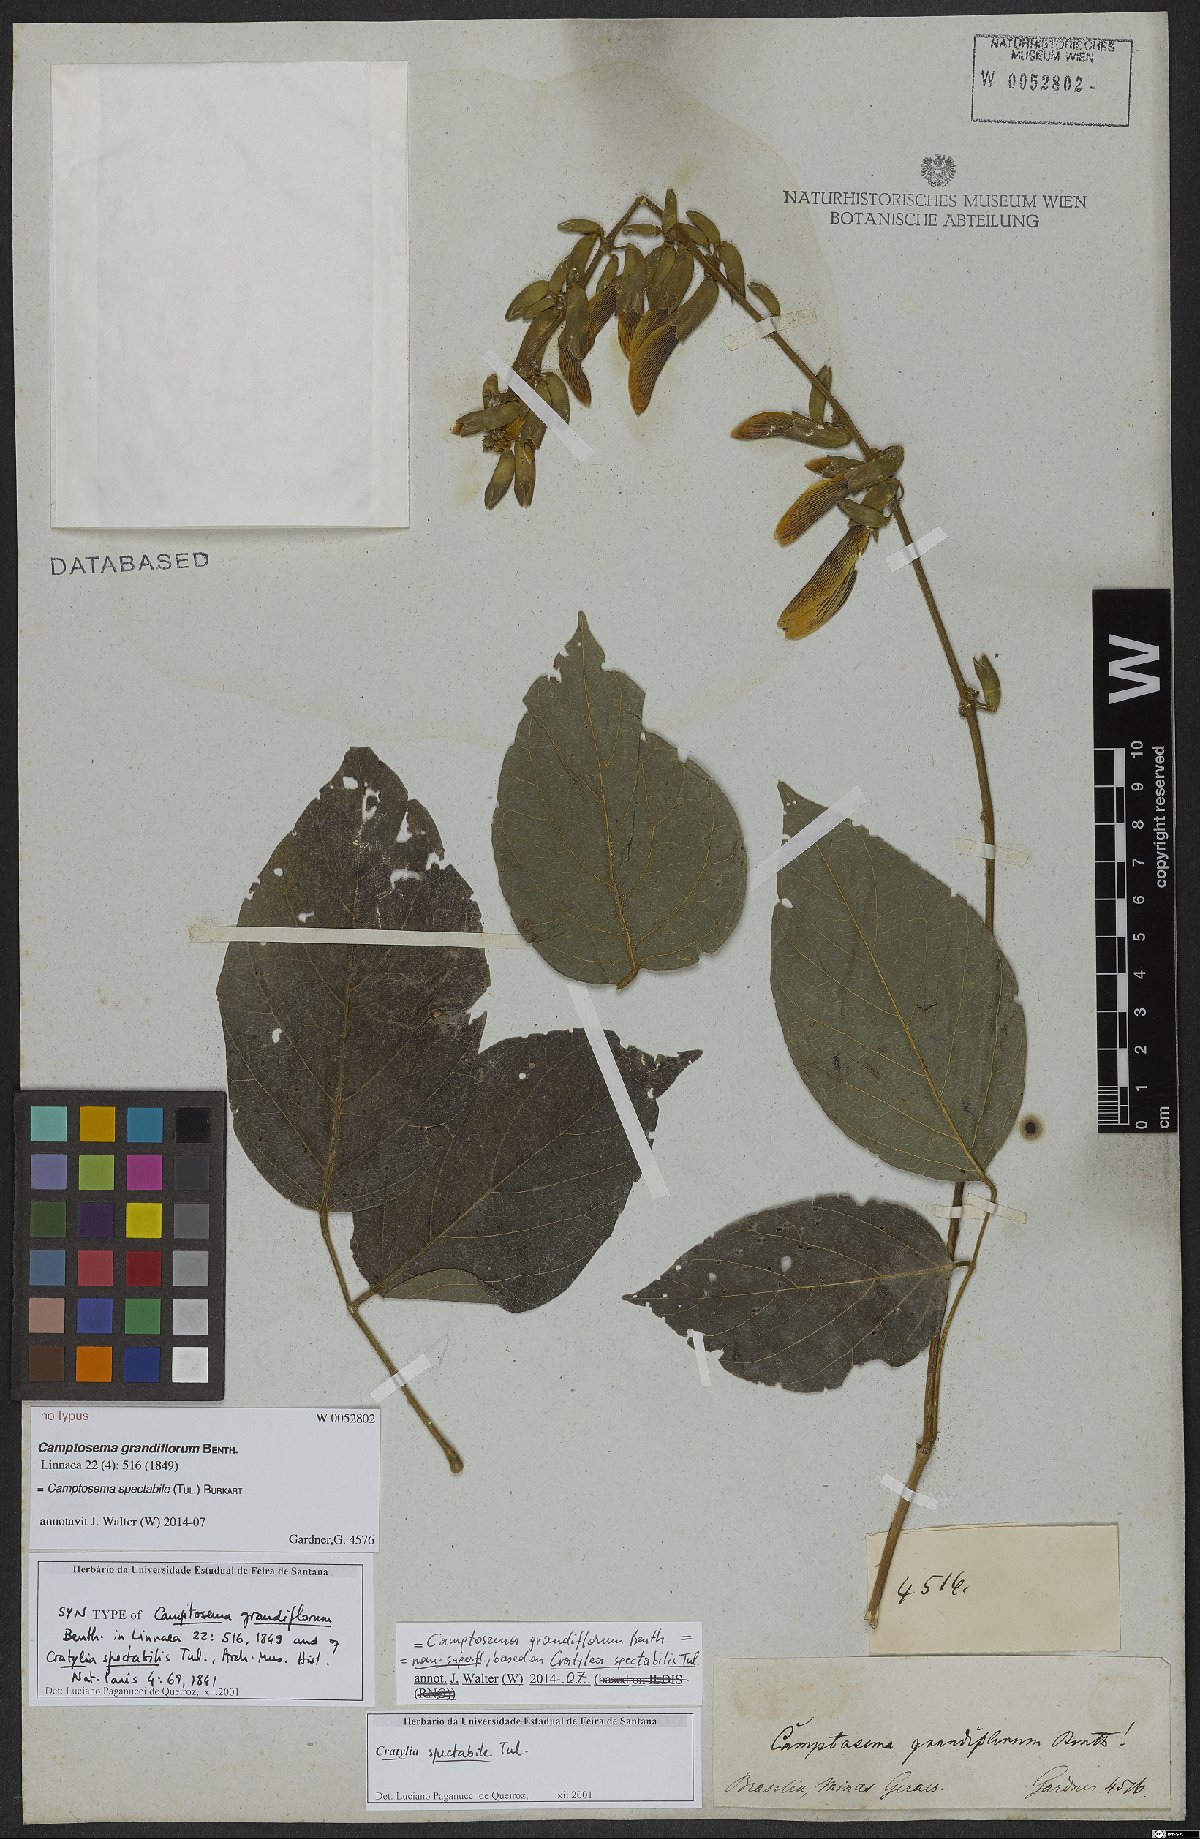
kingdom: Plantae
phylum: Tracheophyta
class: Magnoliopsida
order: Fabales
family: Fabaceae
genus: Camptosema
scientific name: Camptosema spectabile
